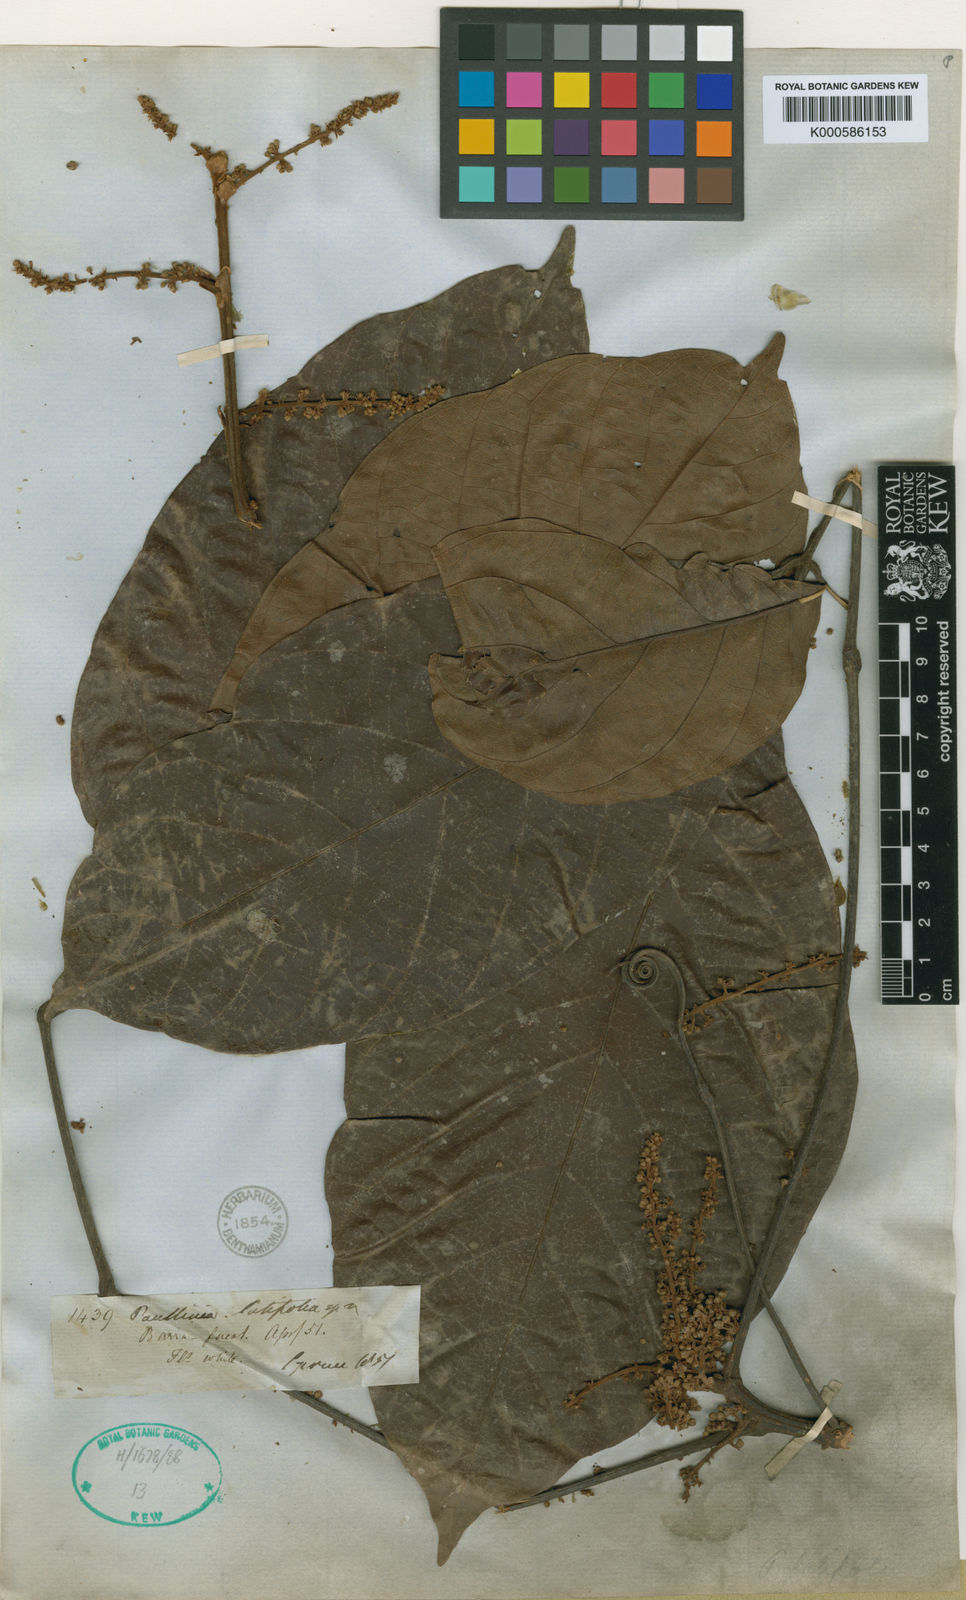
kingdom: Plantae
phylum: Tracheophyta
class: Magnoliopsida
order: Sapindales
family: Sapindaceae
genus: Paullinia
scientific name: Paullinia latifolia
